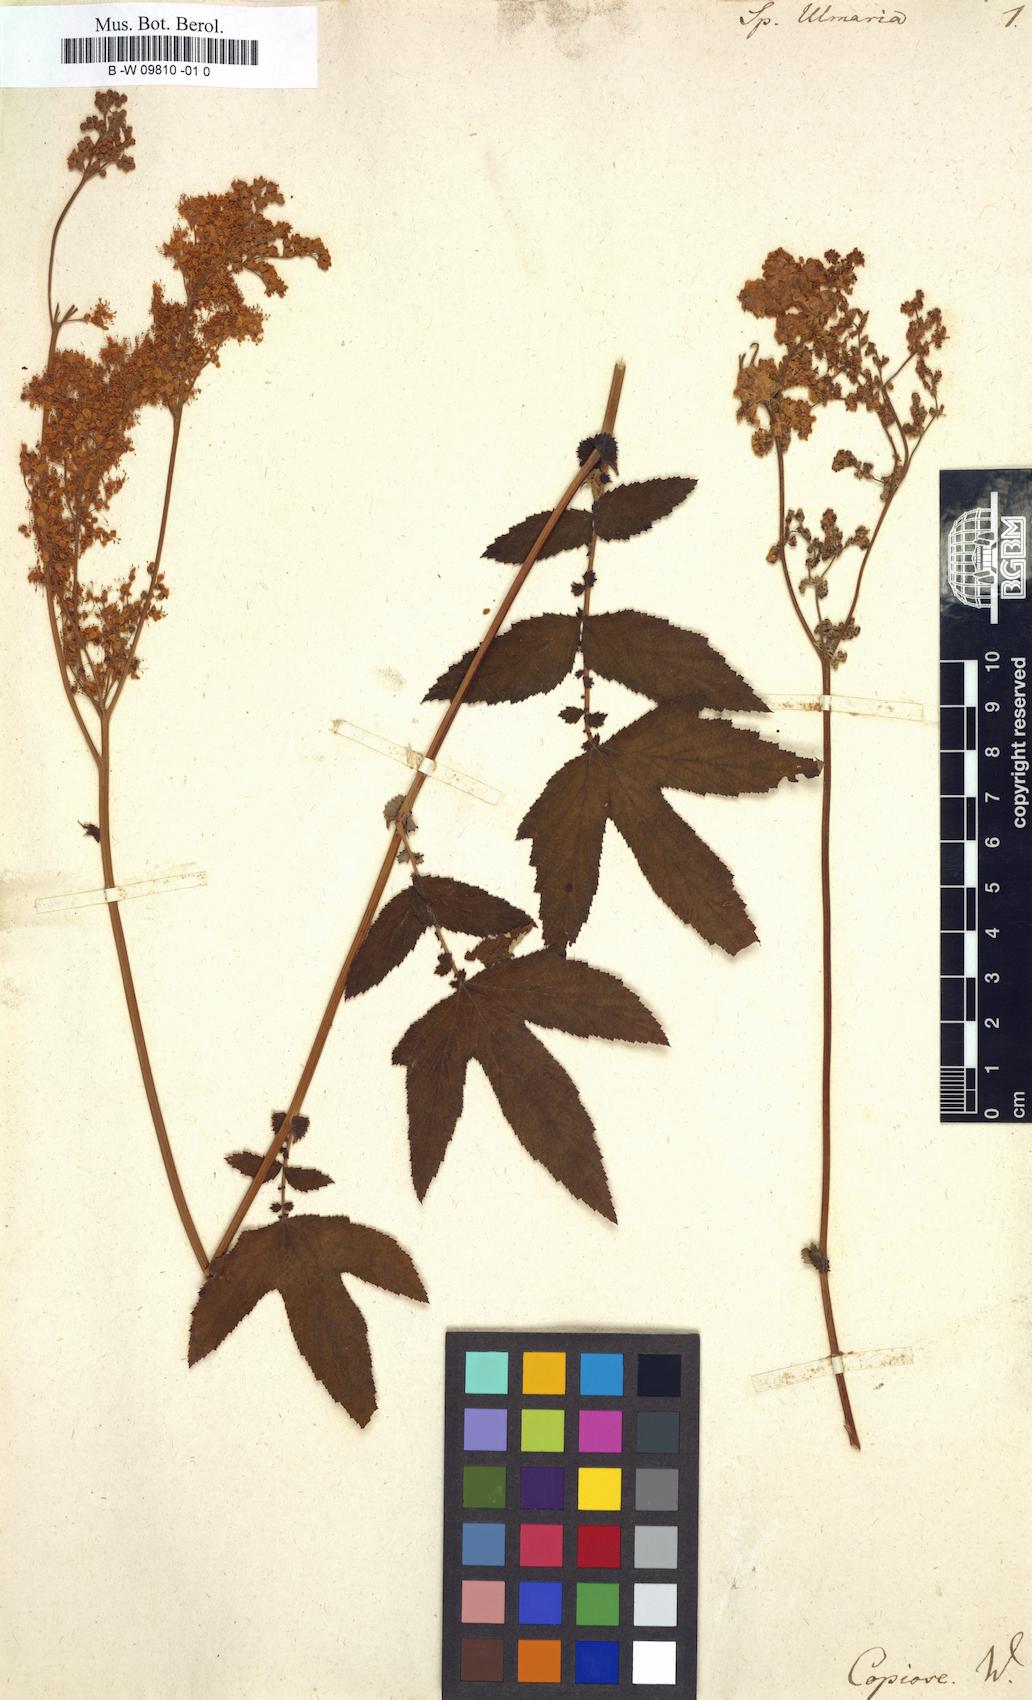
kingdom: Plantae
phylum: Tracheophyta
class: Magnoliopsida
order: Rosales
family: Rosaceae
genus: Filipendula
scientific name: Filipendula ulmaria
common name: Meadowsweet
